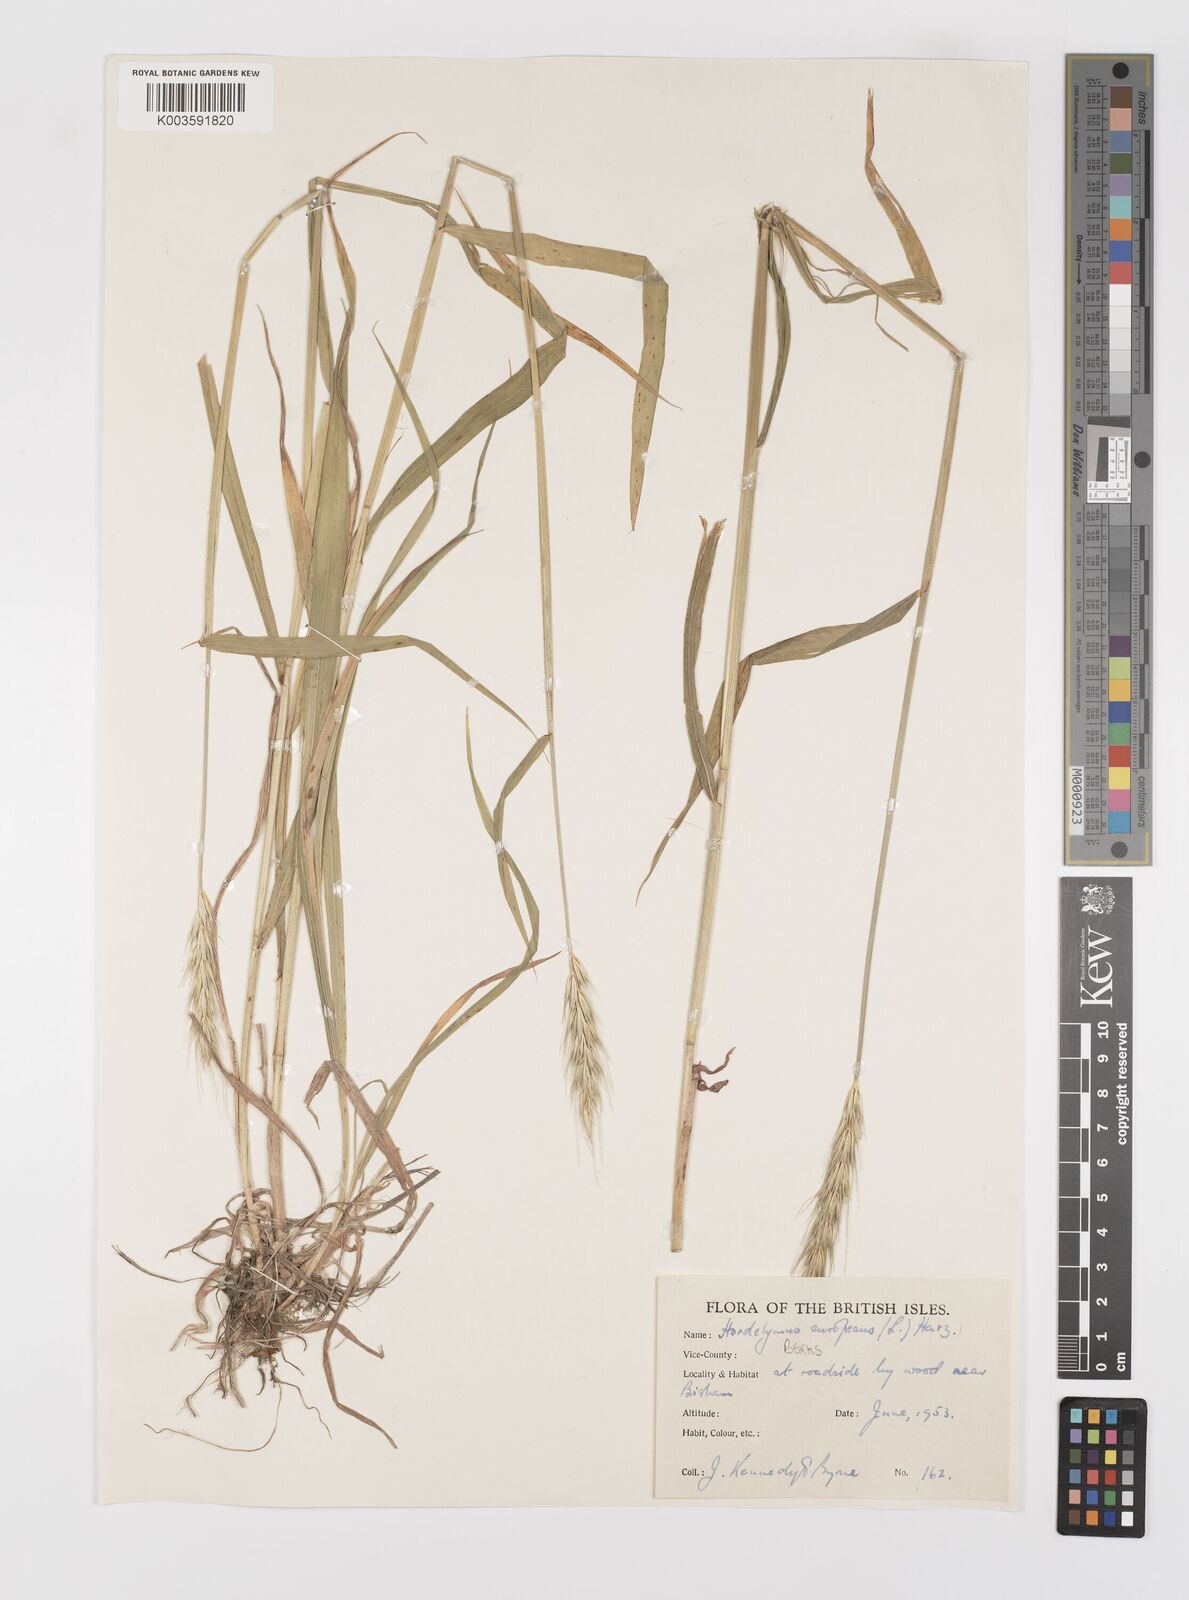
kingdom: Plantae
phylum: Tracheophyta
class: Liliopsida
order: Poales
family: Poaceae
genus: Hordelymus
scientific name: Hordelymus europaeus
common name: Wood-barley
